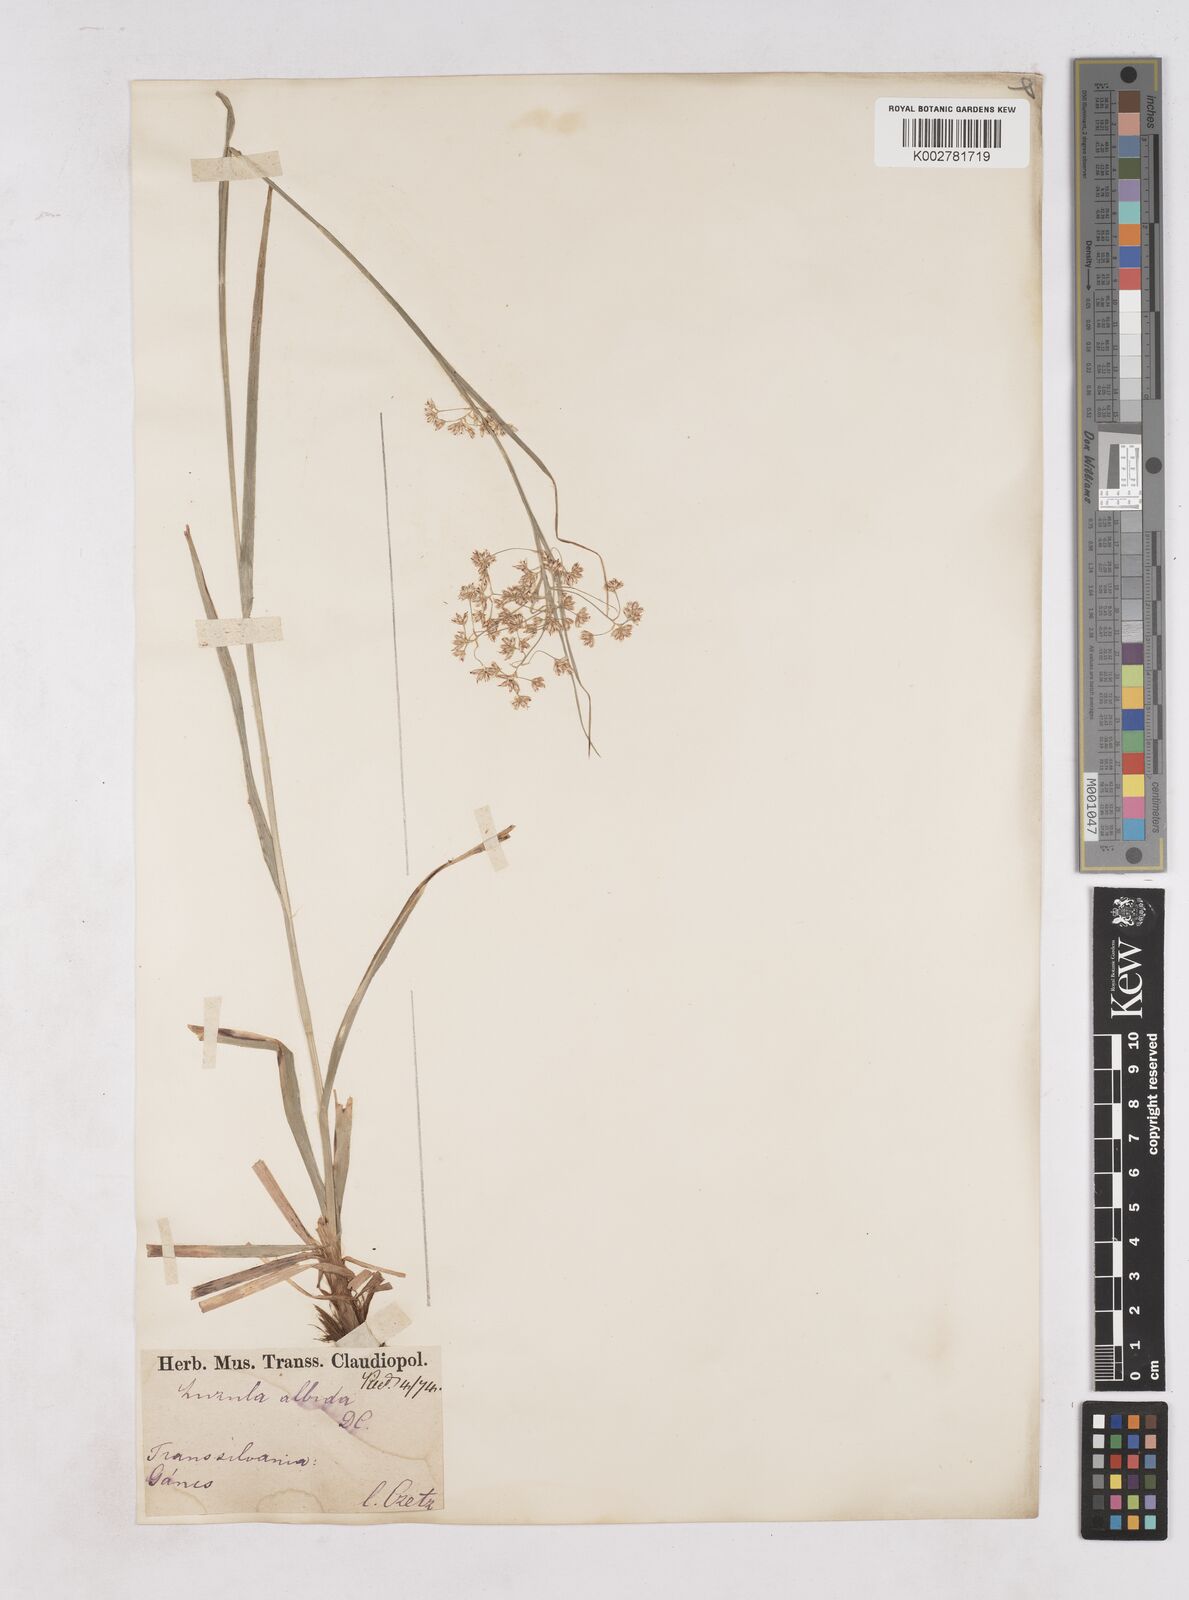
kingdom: Plantae
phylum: Tracheophyta
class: Liliopsida
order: Poales
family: Juncaceae
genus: Luzula
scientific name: Luzula luzuloides
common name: White wood-rush
